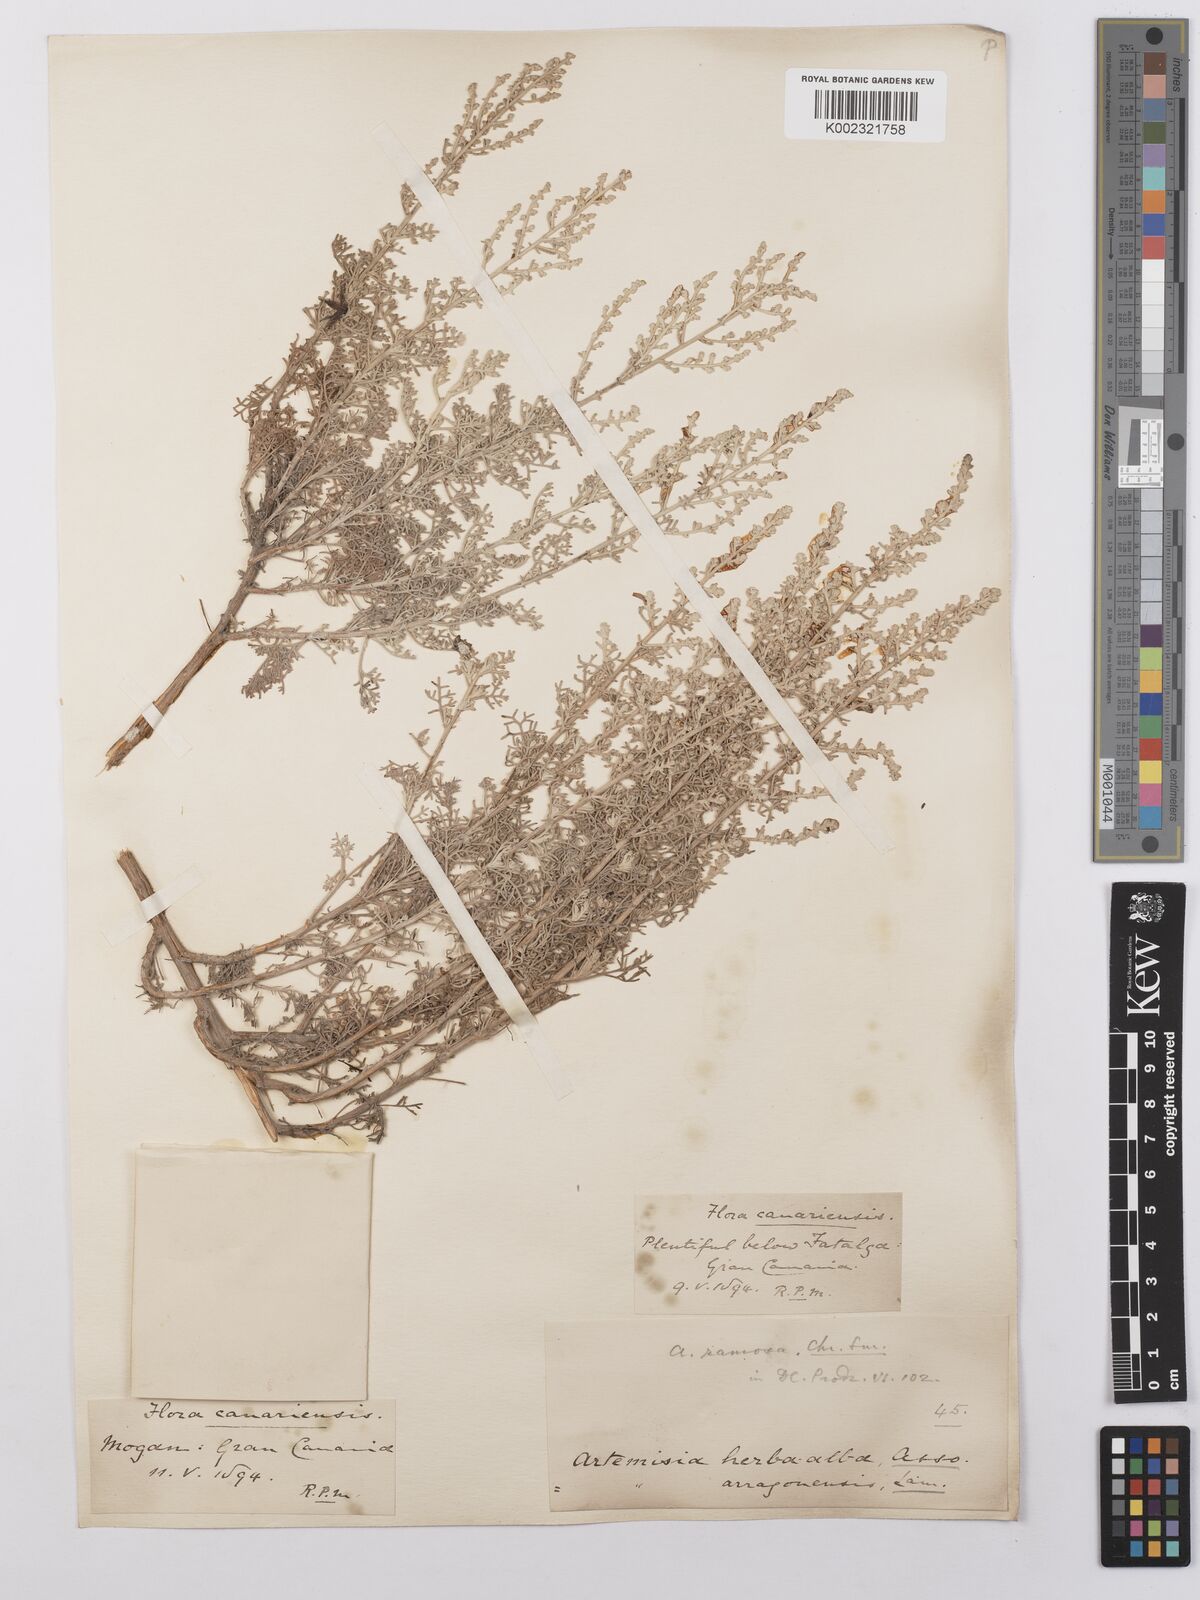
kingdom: Plantae
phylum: Tracheophyta
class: Magnoliopsida
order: Asterales
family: Asteraceae
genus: Artemisia
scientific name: Artemisia herba-alba
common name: White wormwood
